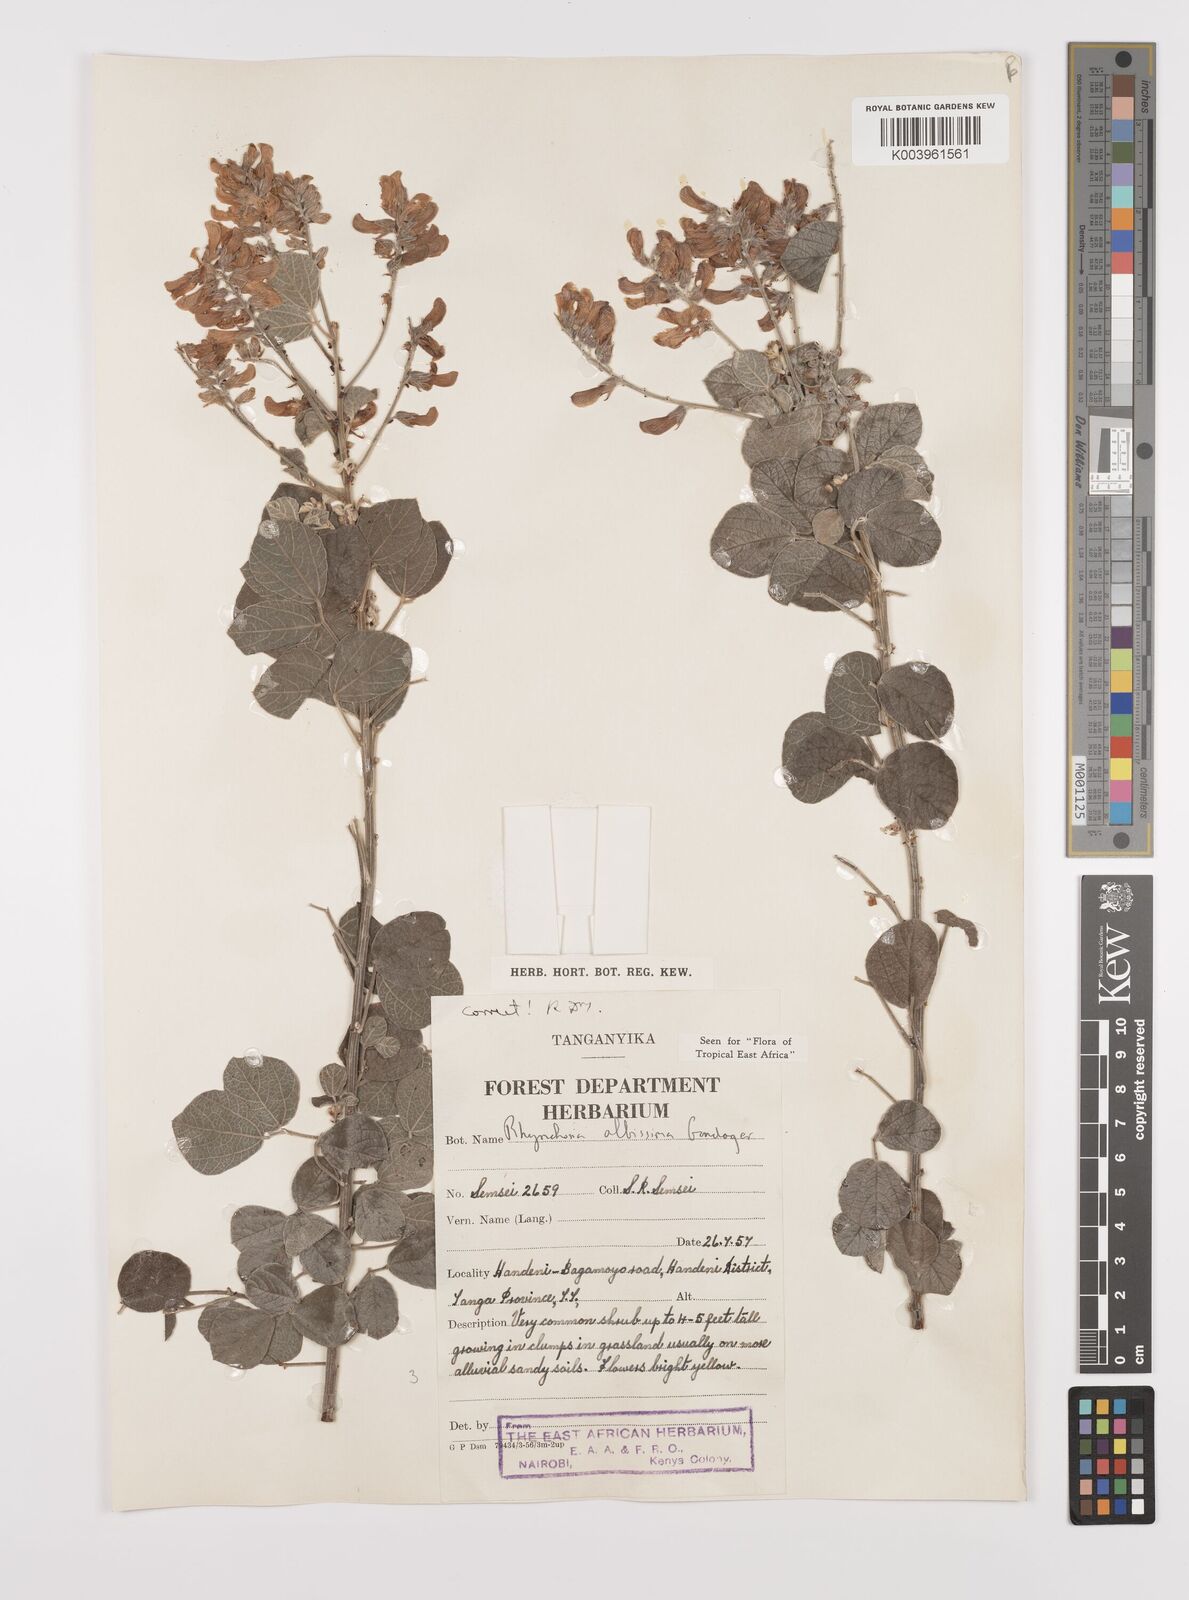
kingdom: Plantae
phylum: Tracheophyta
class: Magnoliopsida
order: Fabales
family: Fabaceae
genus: Rhynchosia
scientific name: Rhynchosia albissima
